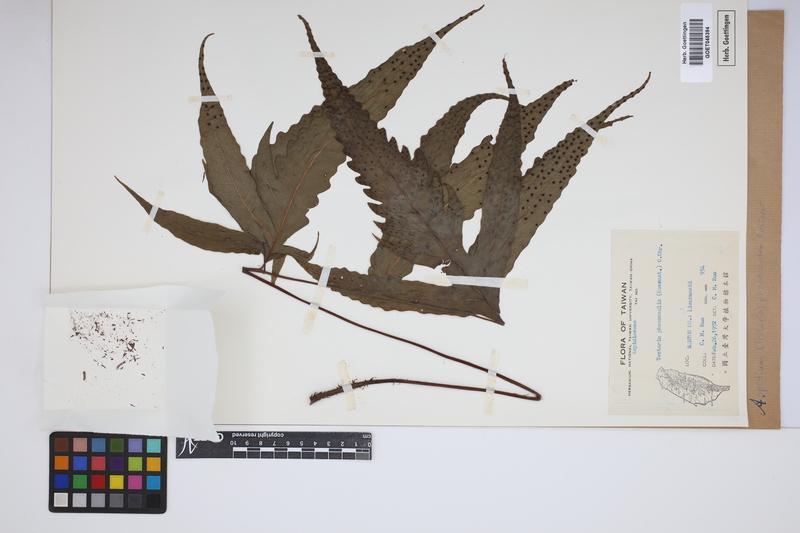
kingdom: Plantae
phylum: Tracheophyta
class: Polypodiopsida
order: Polypodiales
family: Tectariaceae
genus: Tectaria
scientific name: Tectaria phaeocaulis
